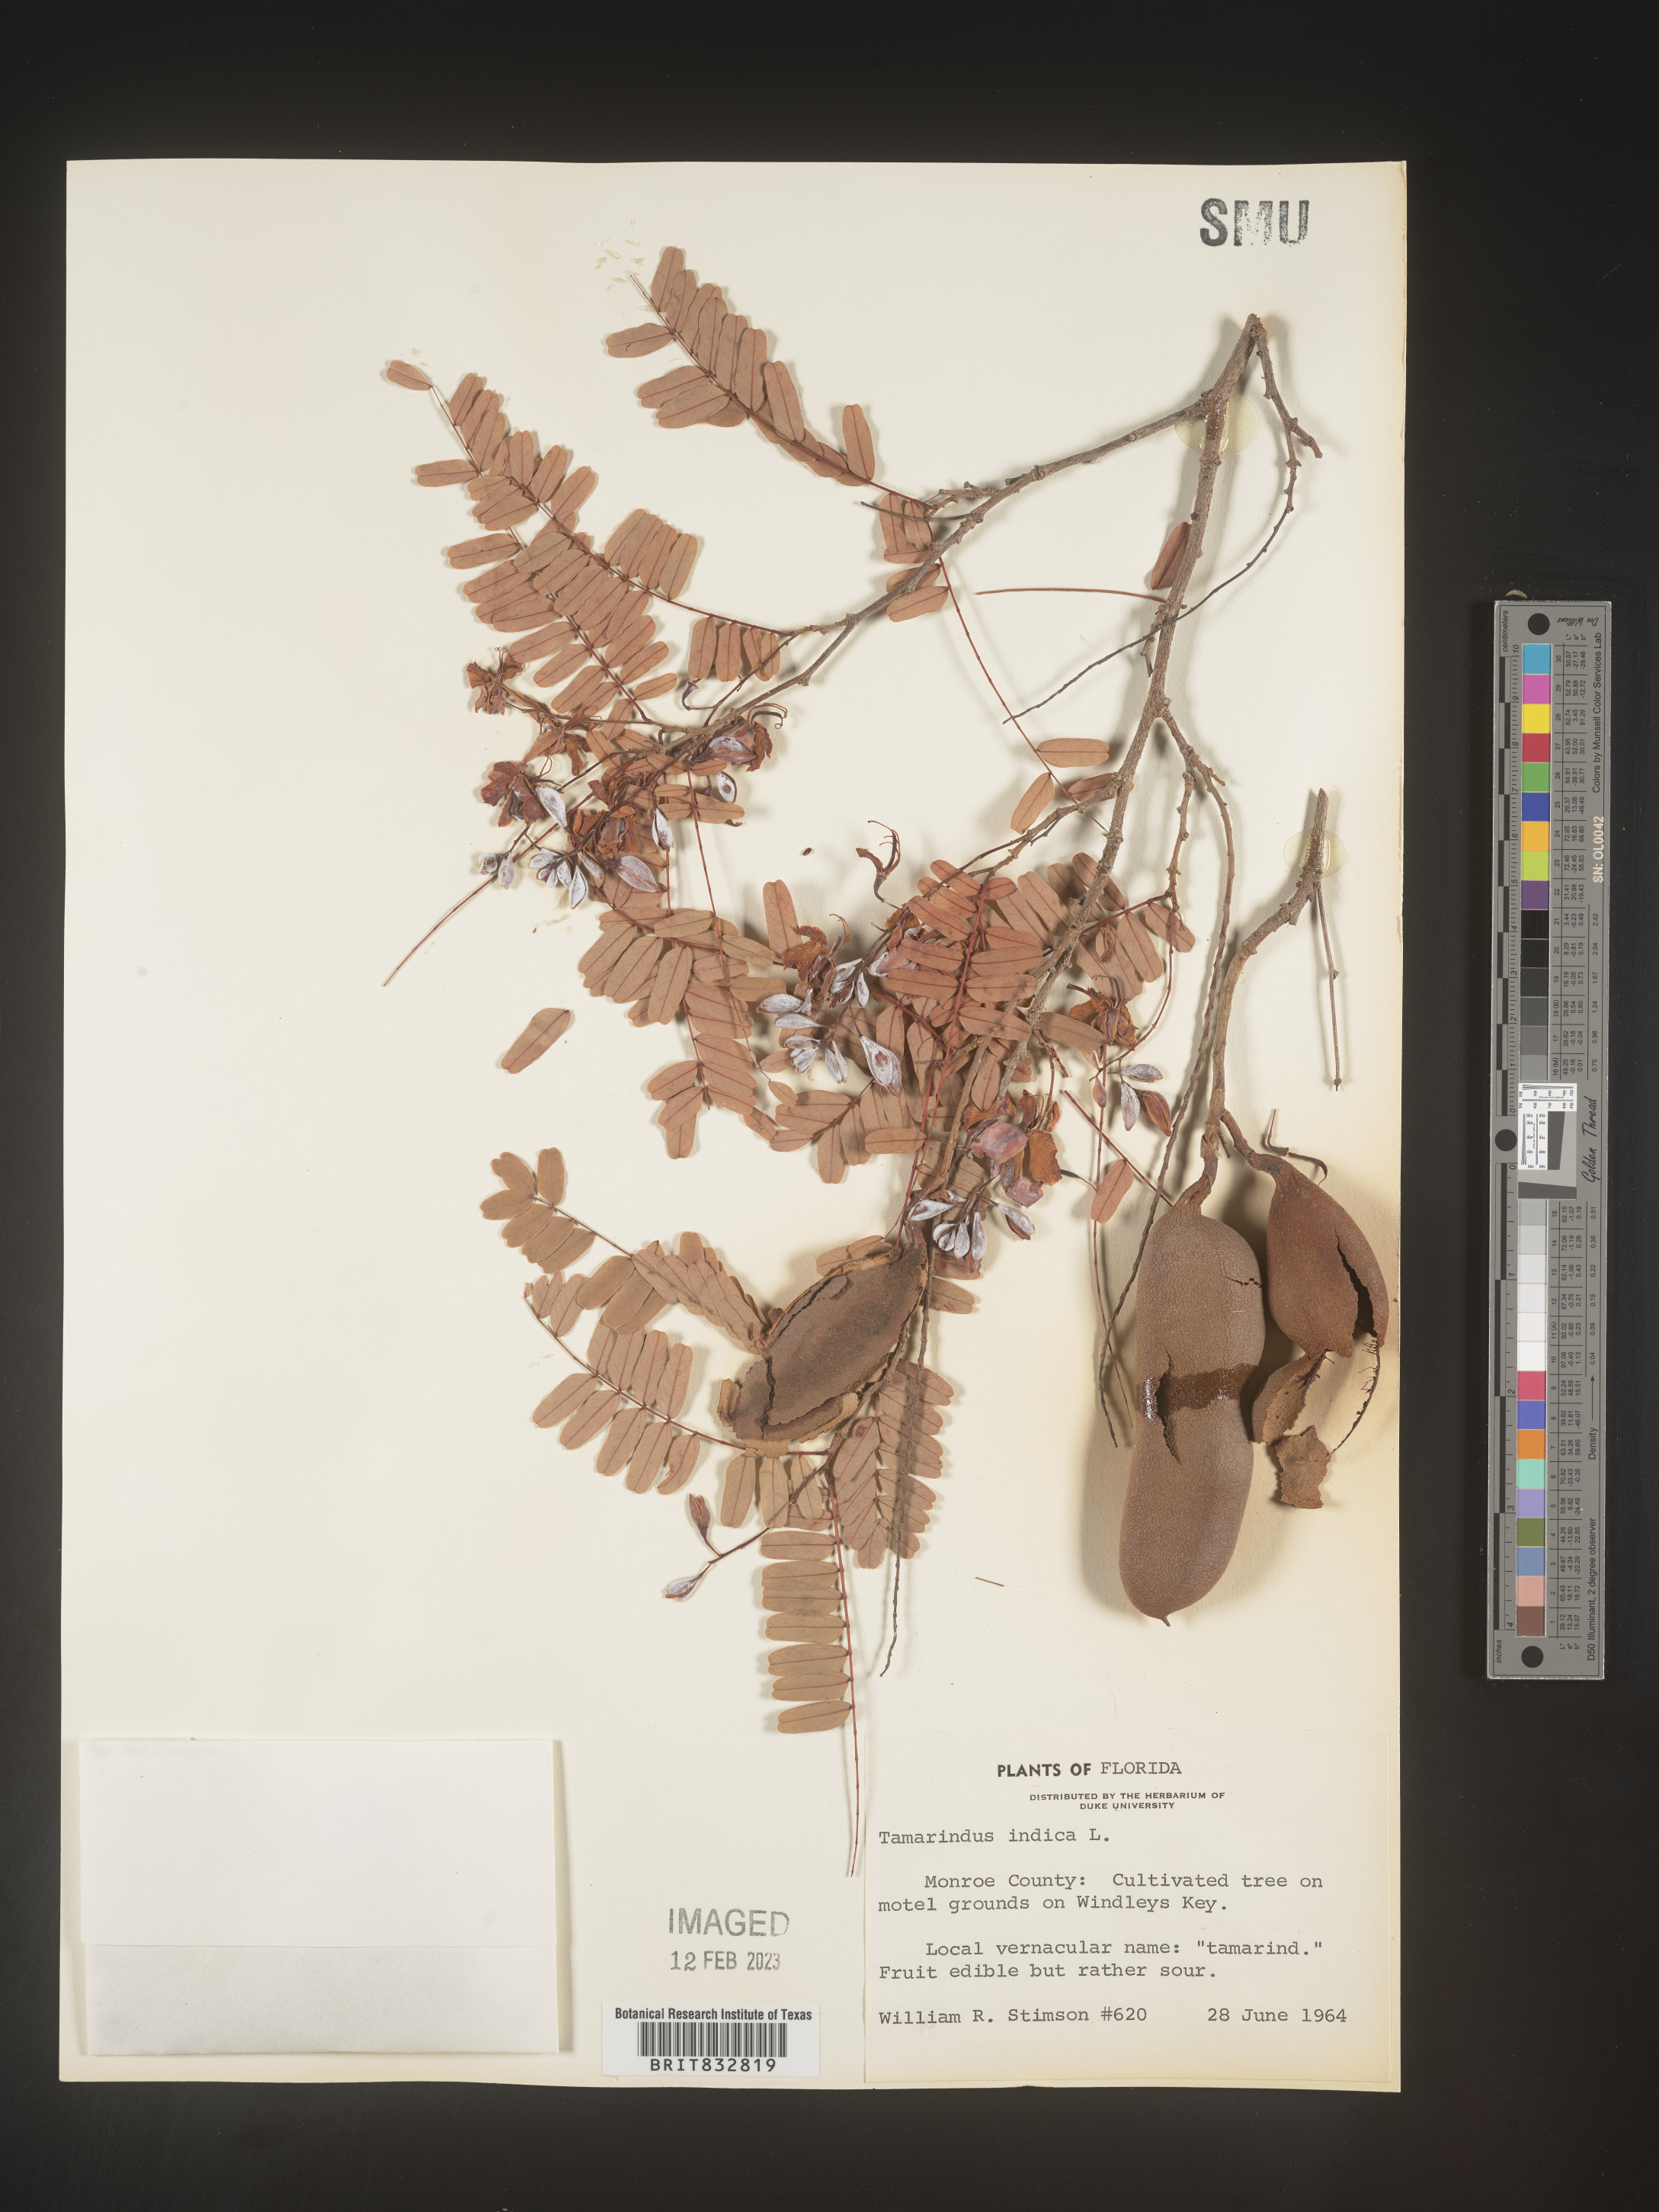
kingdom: Plantae
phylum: Tracheophyta
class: Magnoliopsida
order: Fabales
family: Fabaceae
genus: Tamarindus
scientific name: Tamarindus indica
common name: Tamarind
